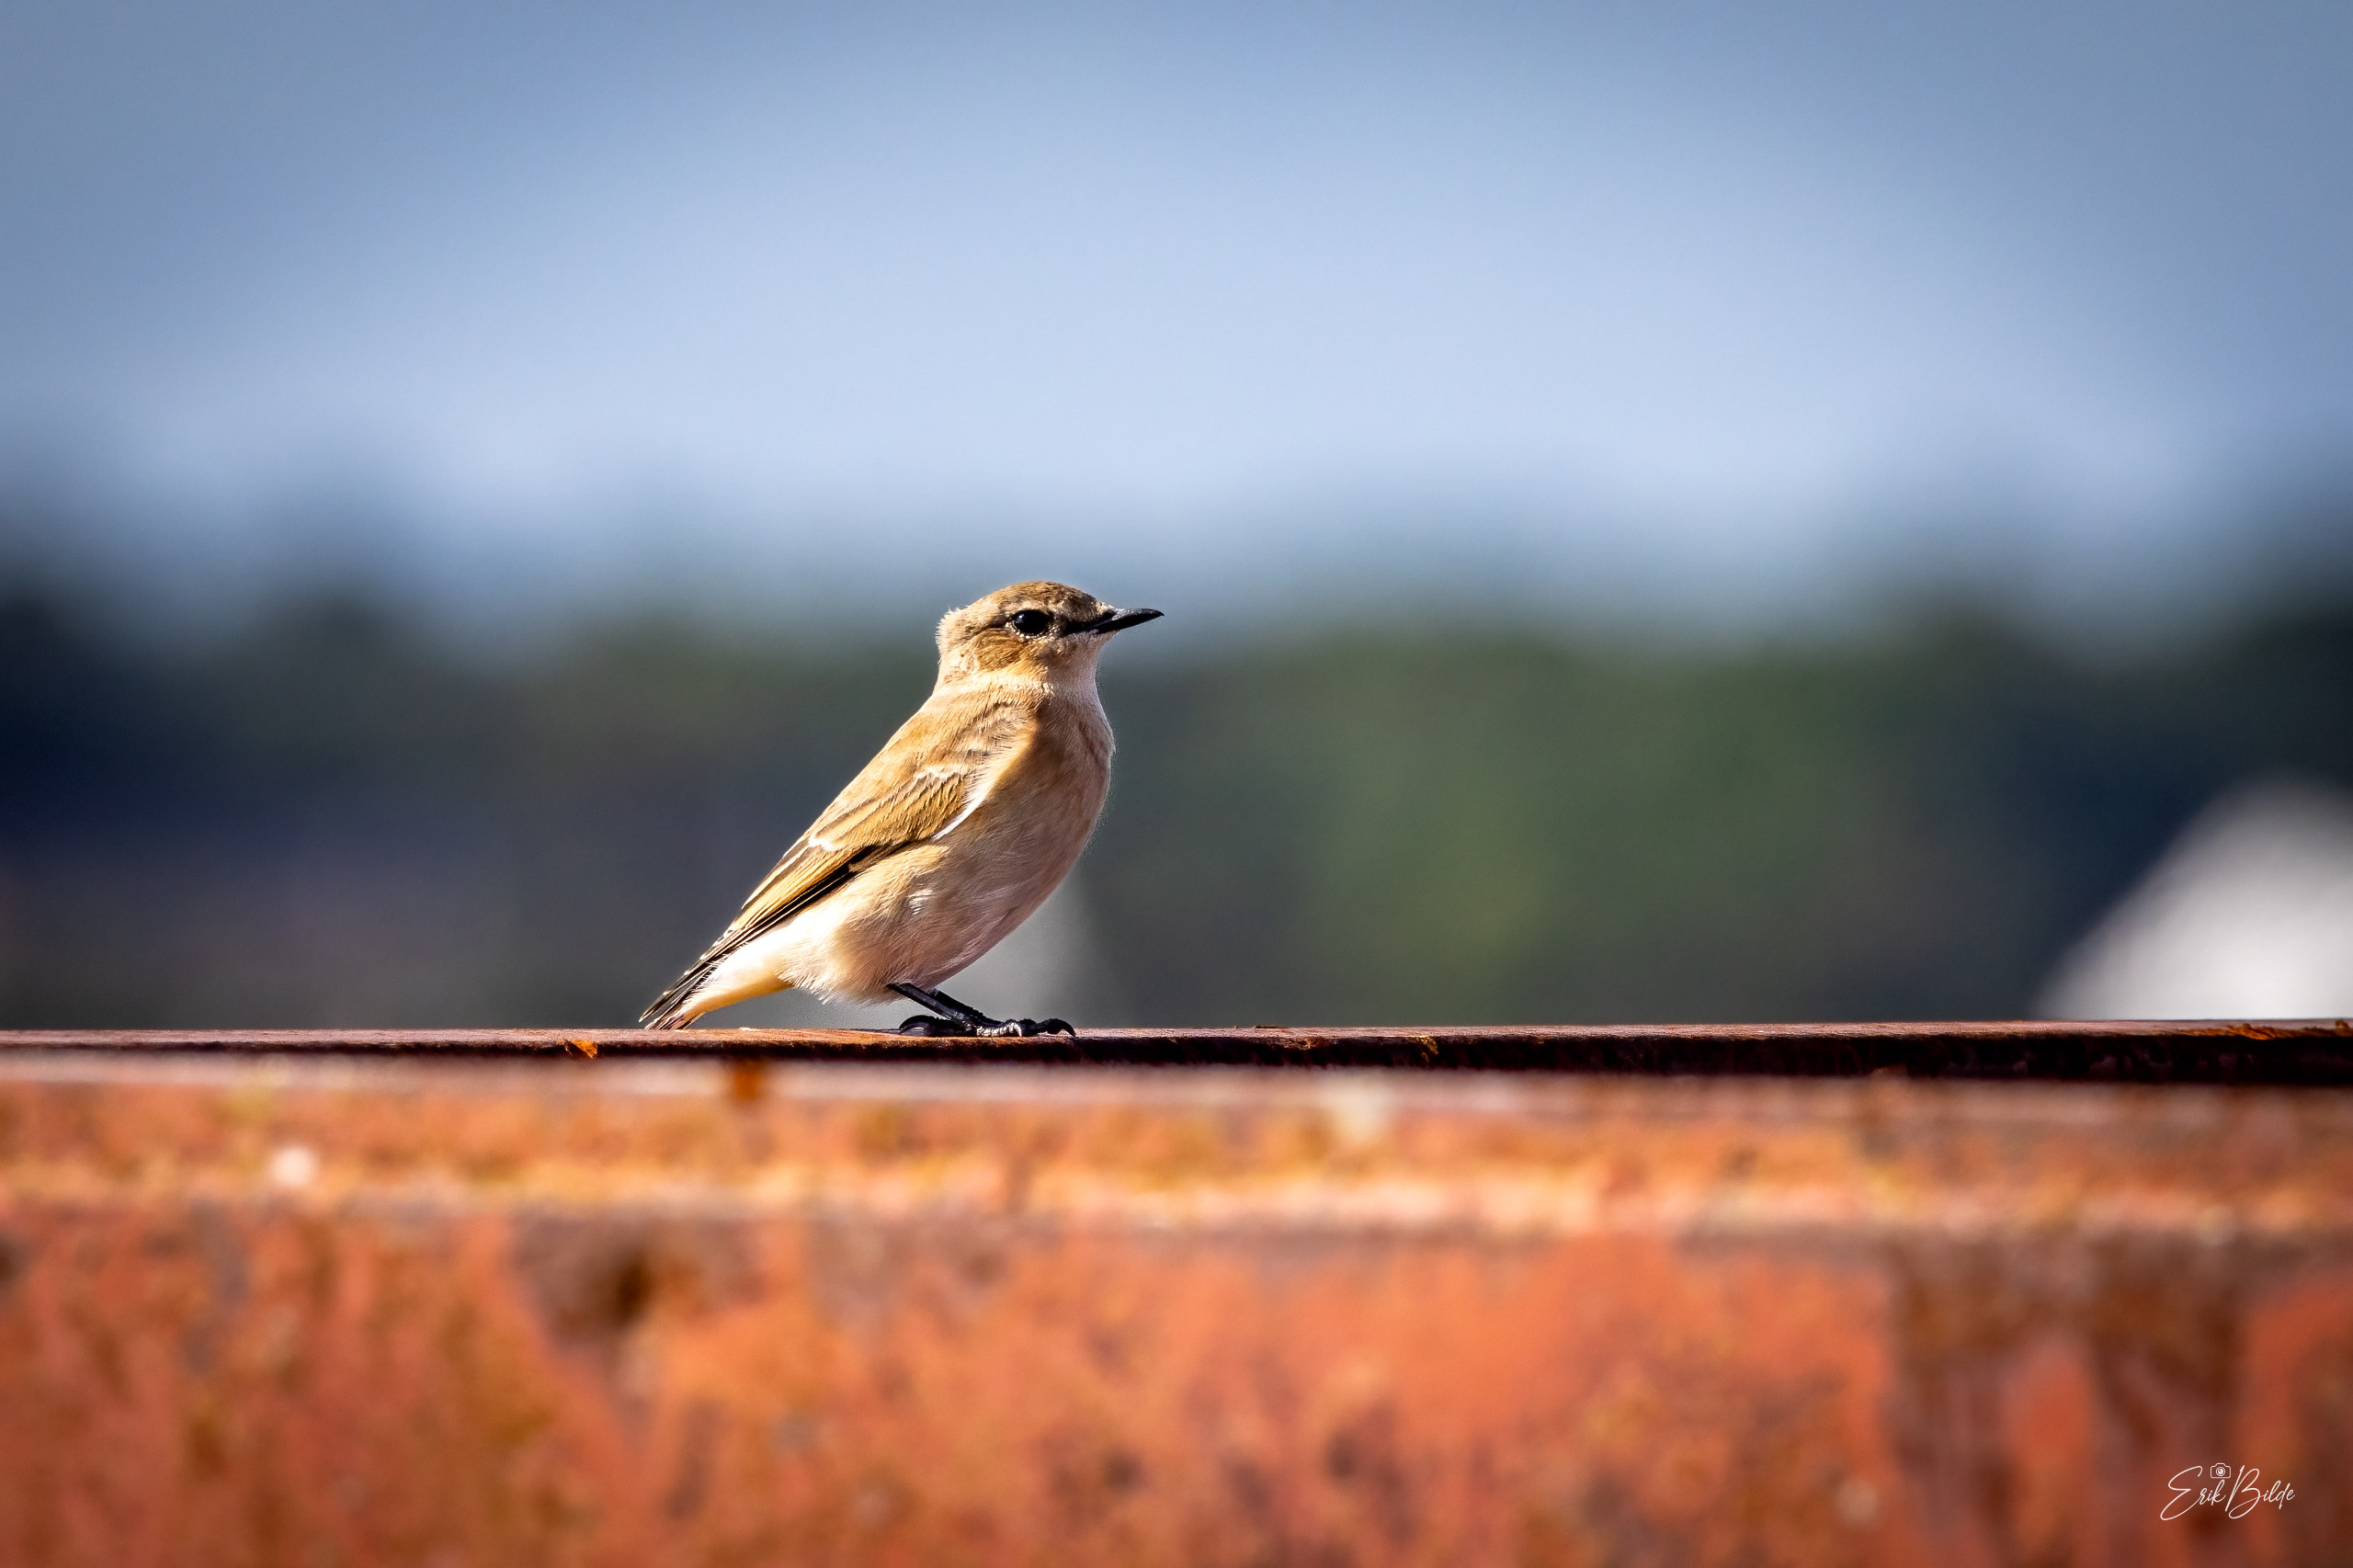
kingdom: Animalia
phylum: Chordata
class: Aves
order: Passeriformes
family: Muscicapidae
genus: Oenanthe
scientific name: Oenanthe oenanthe
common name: Stenpikker
